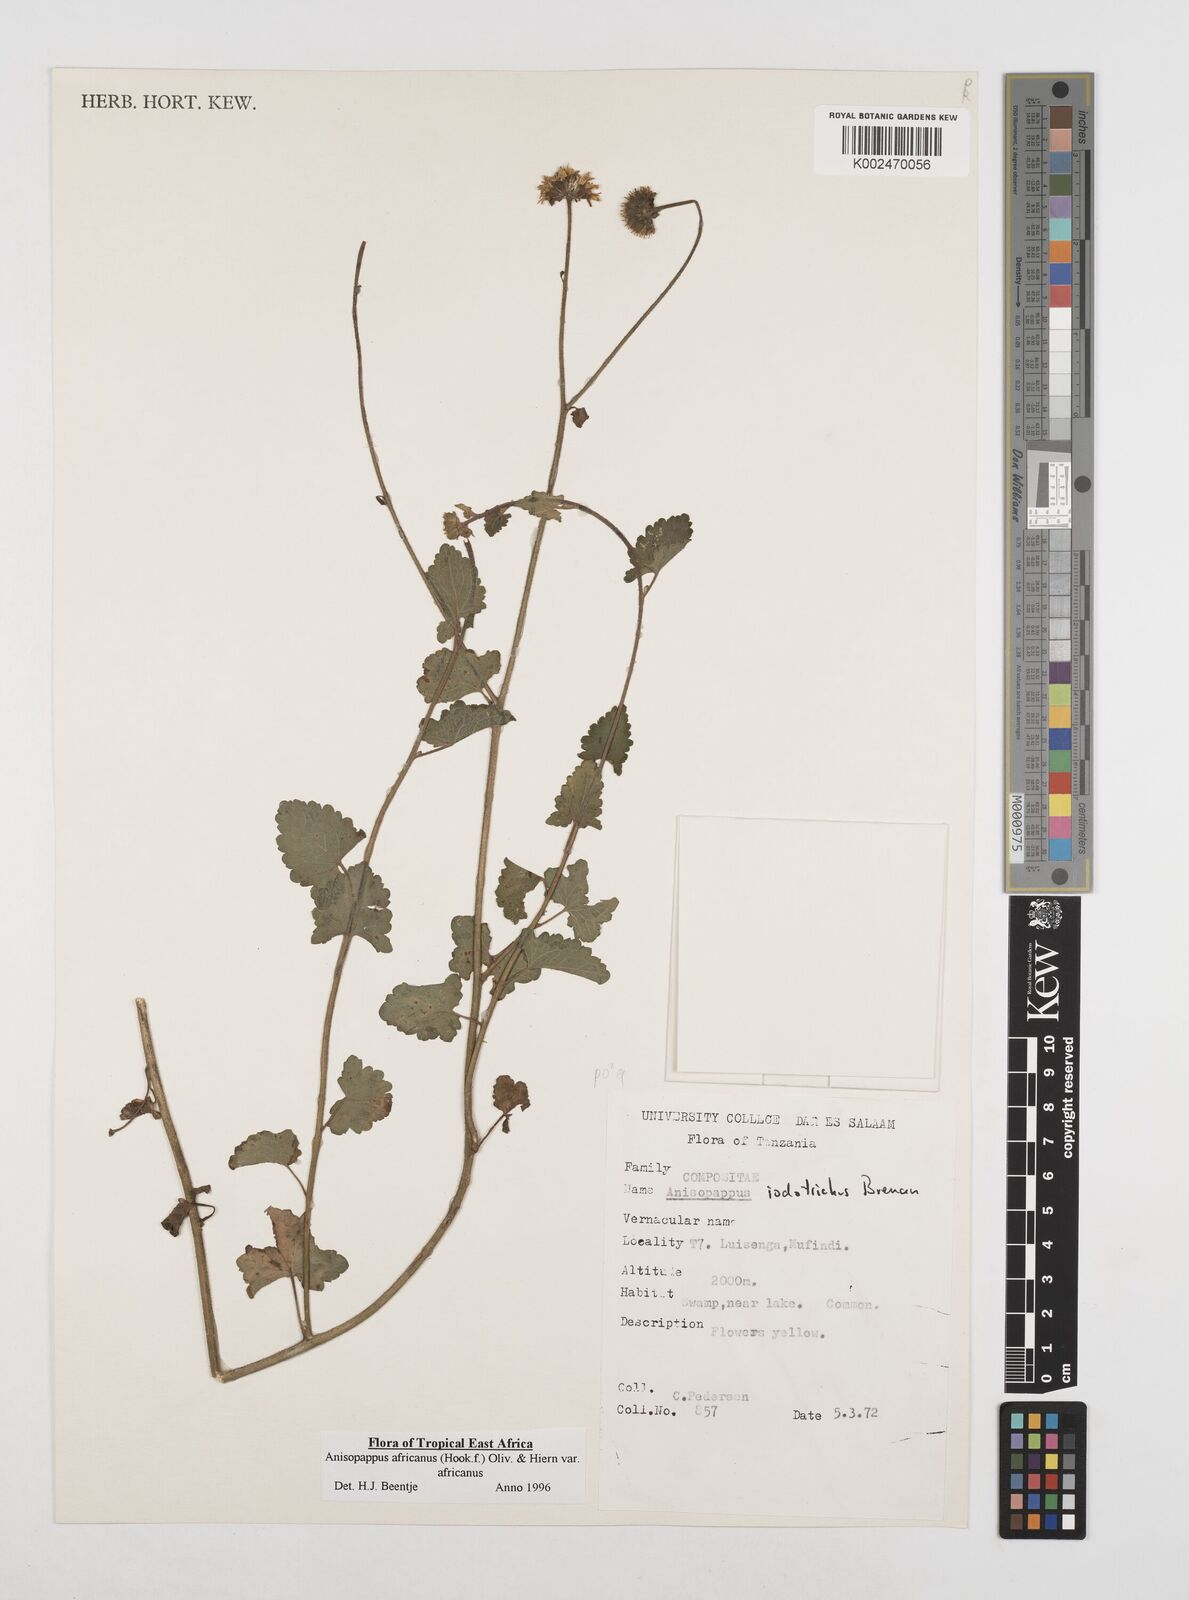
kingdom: Plantae
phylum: Tracheophyta
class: Magnoliopsida
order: Asterales
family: Asteraceae
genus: Anisopappus
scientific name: Anisopappus buchwaldii
